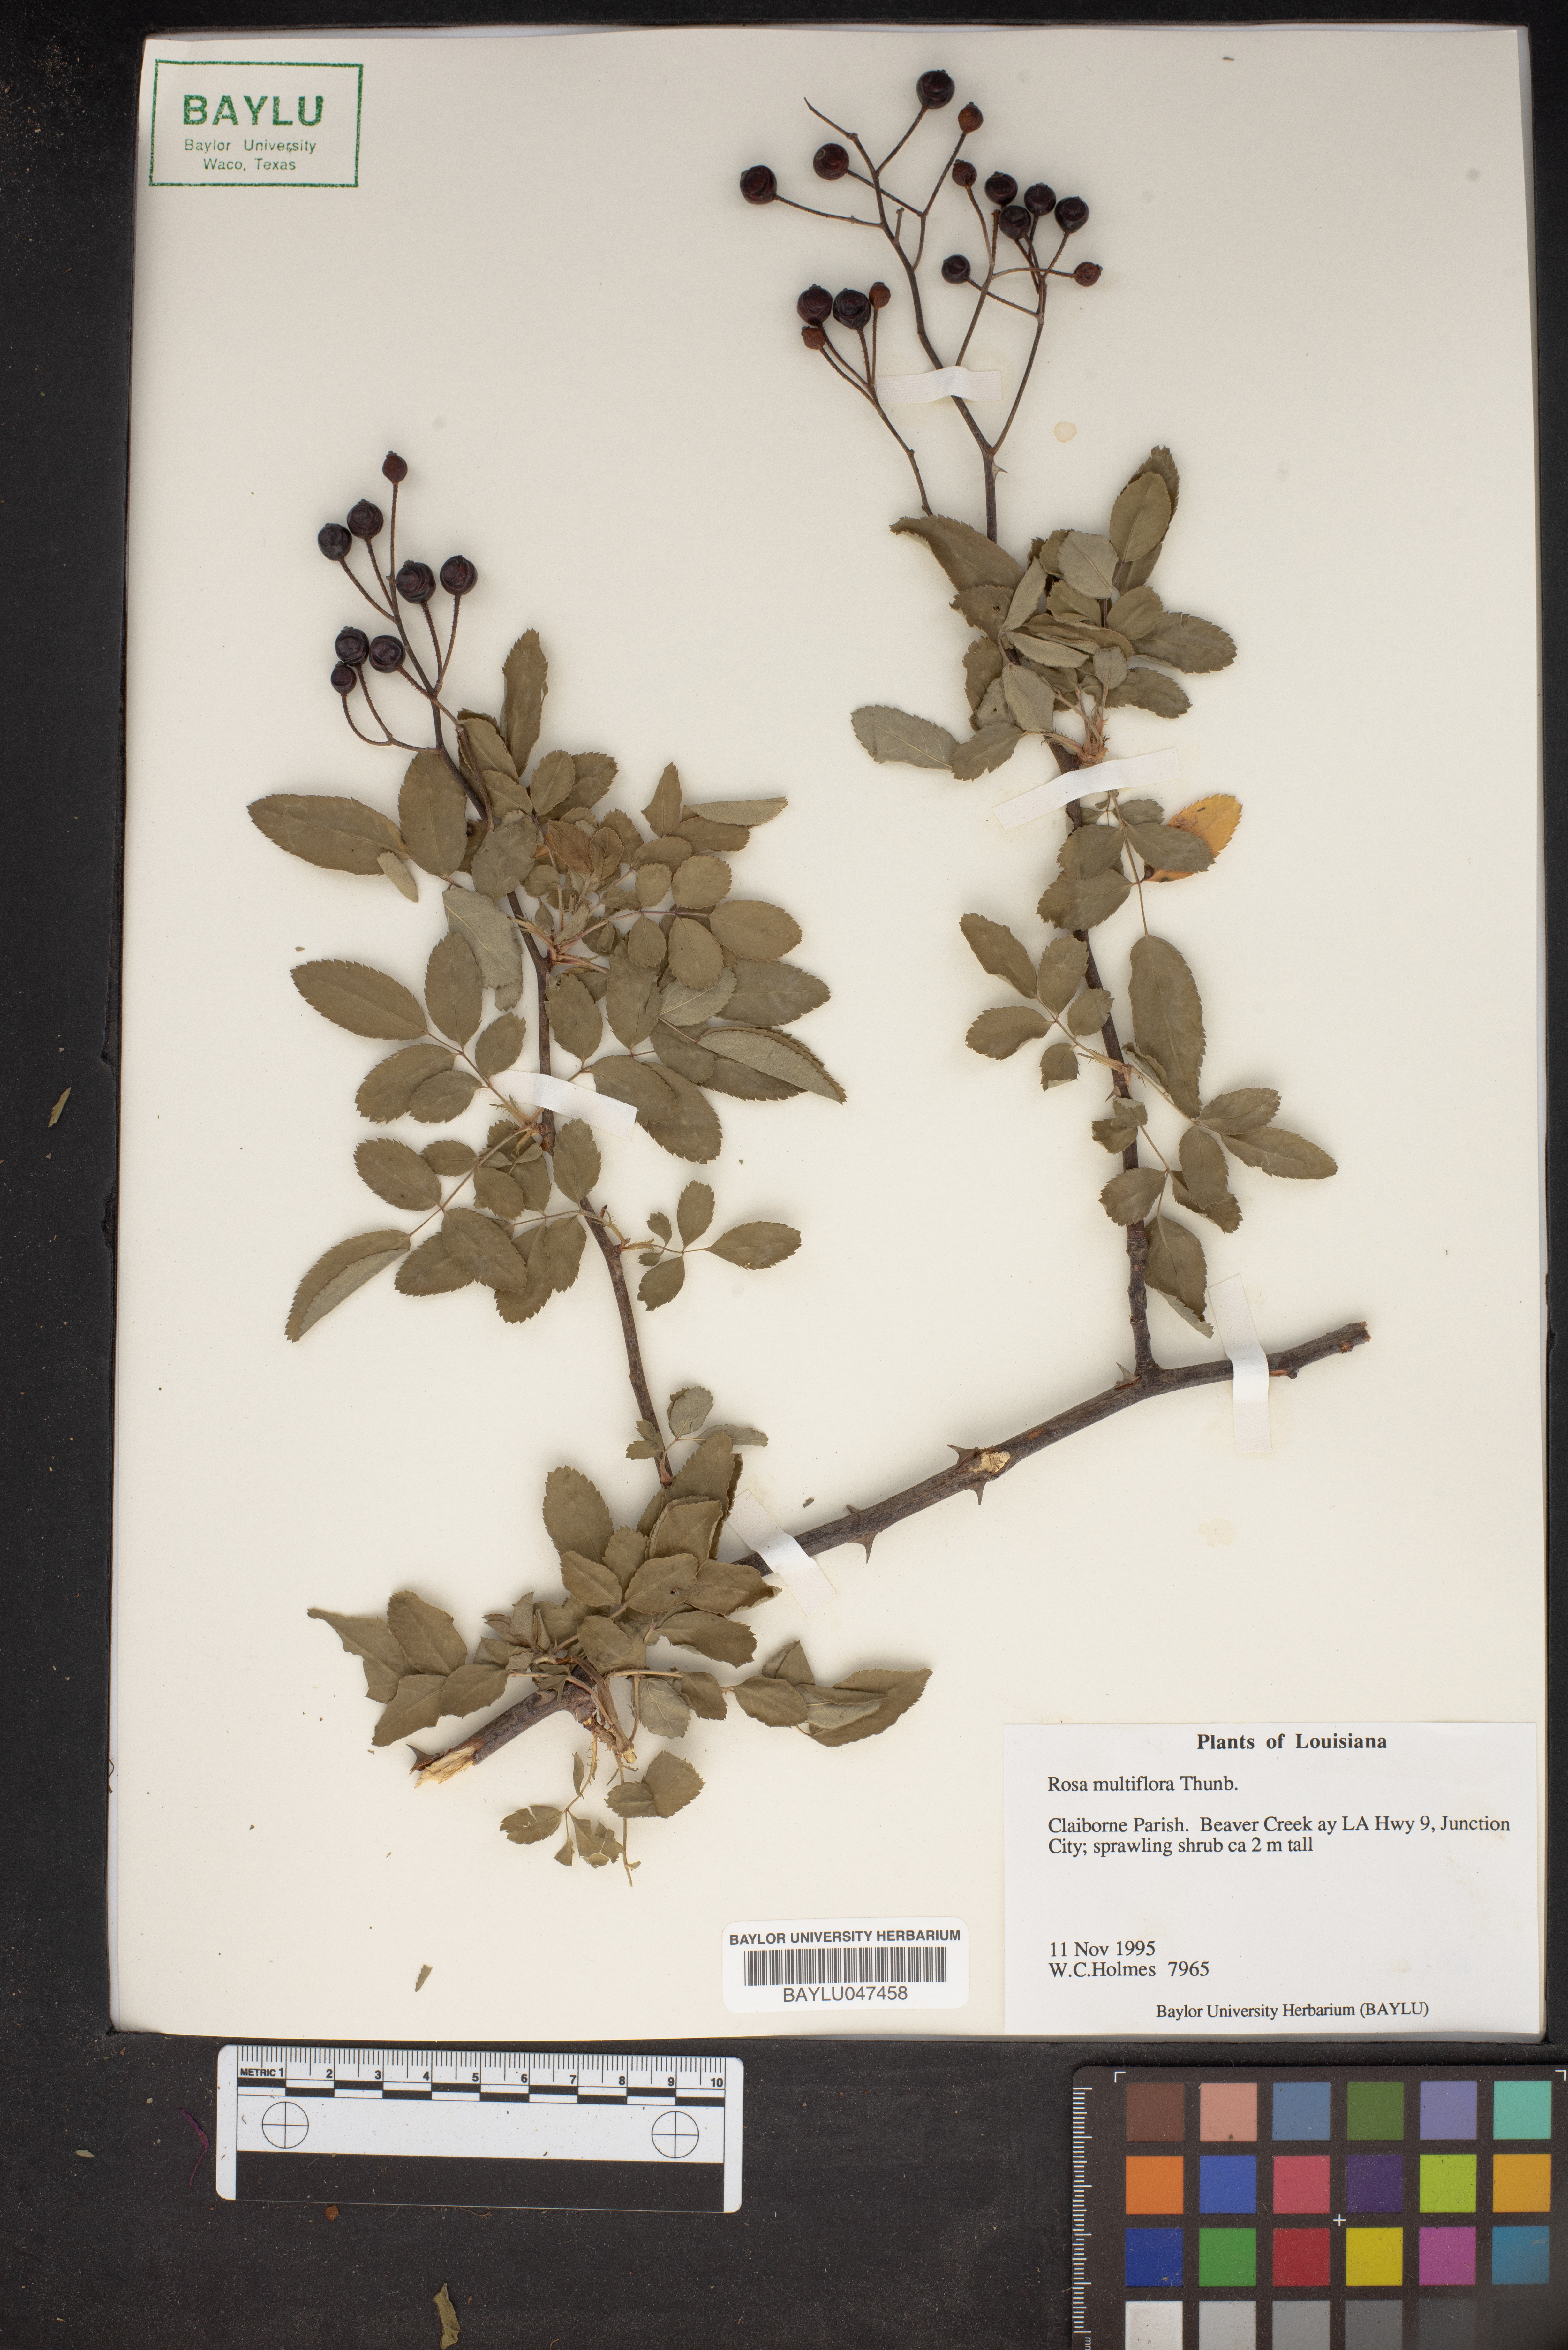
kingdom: Plantae
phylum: Tracheophyta
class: Magnoliopsida
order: Rosales
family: Rosaceae
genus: Rosa
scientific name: Rosa multiflora
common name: Multiflora rose
